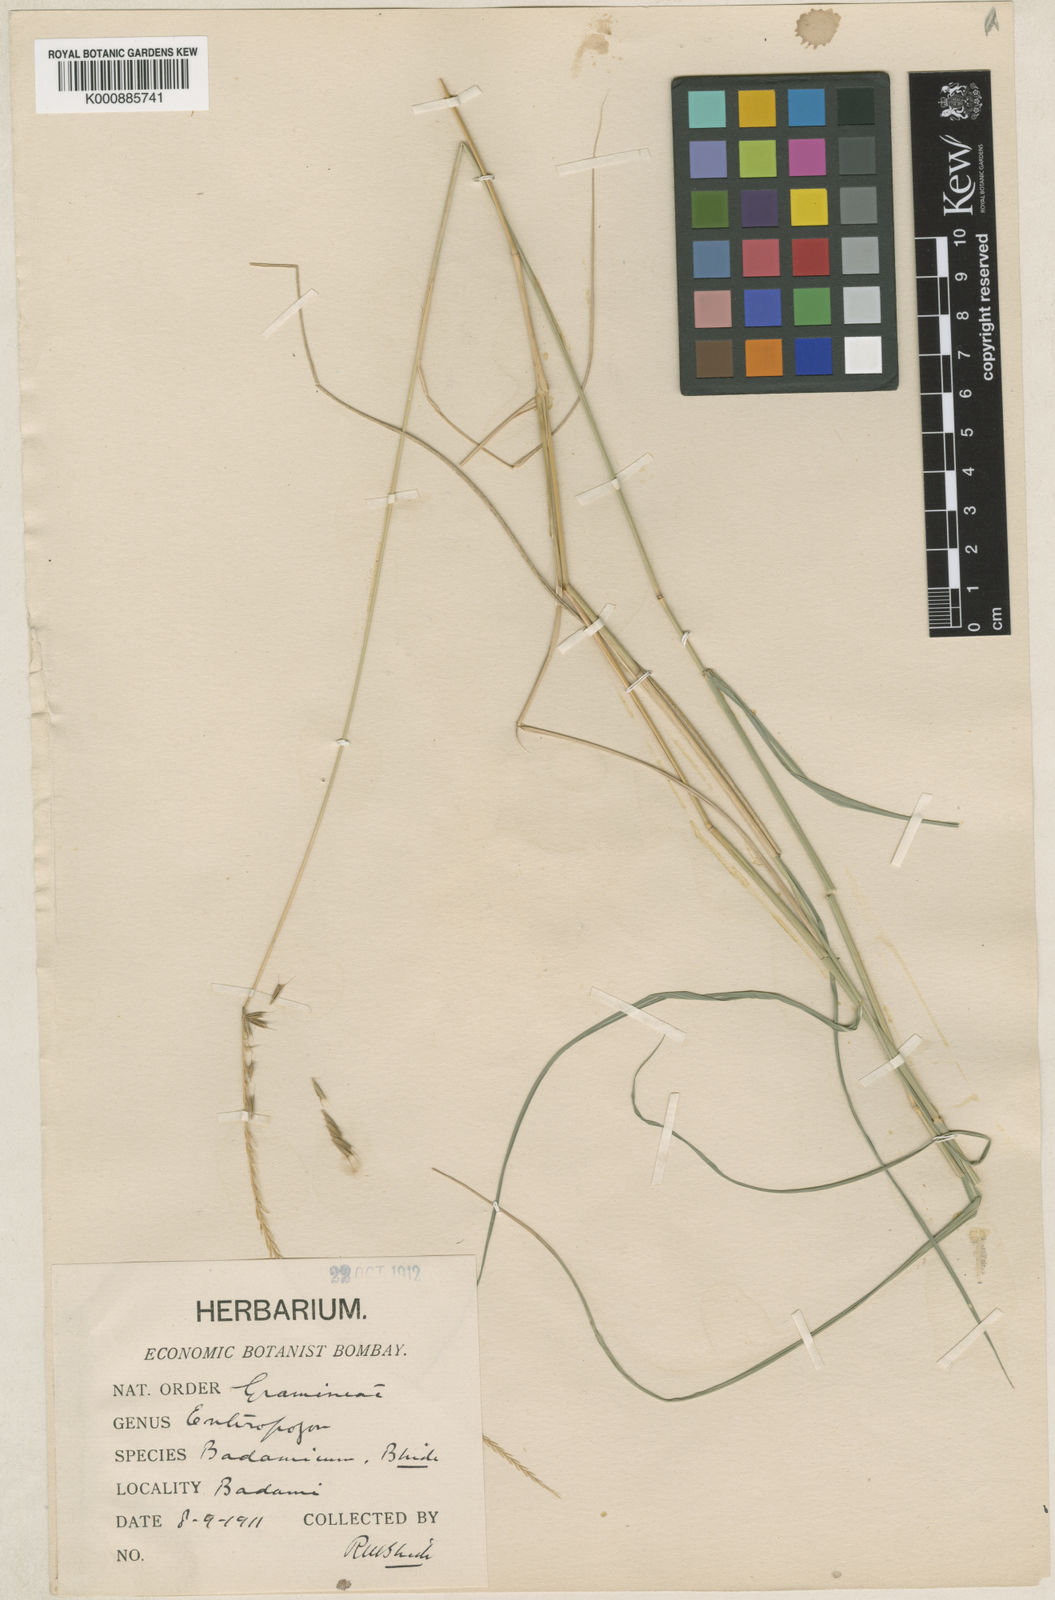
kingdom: Plantae
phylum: Tracheophyta
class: Liliopsida
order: Poales
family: Poaceae
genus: Enteropogon
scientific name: Enteropogon
